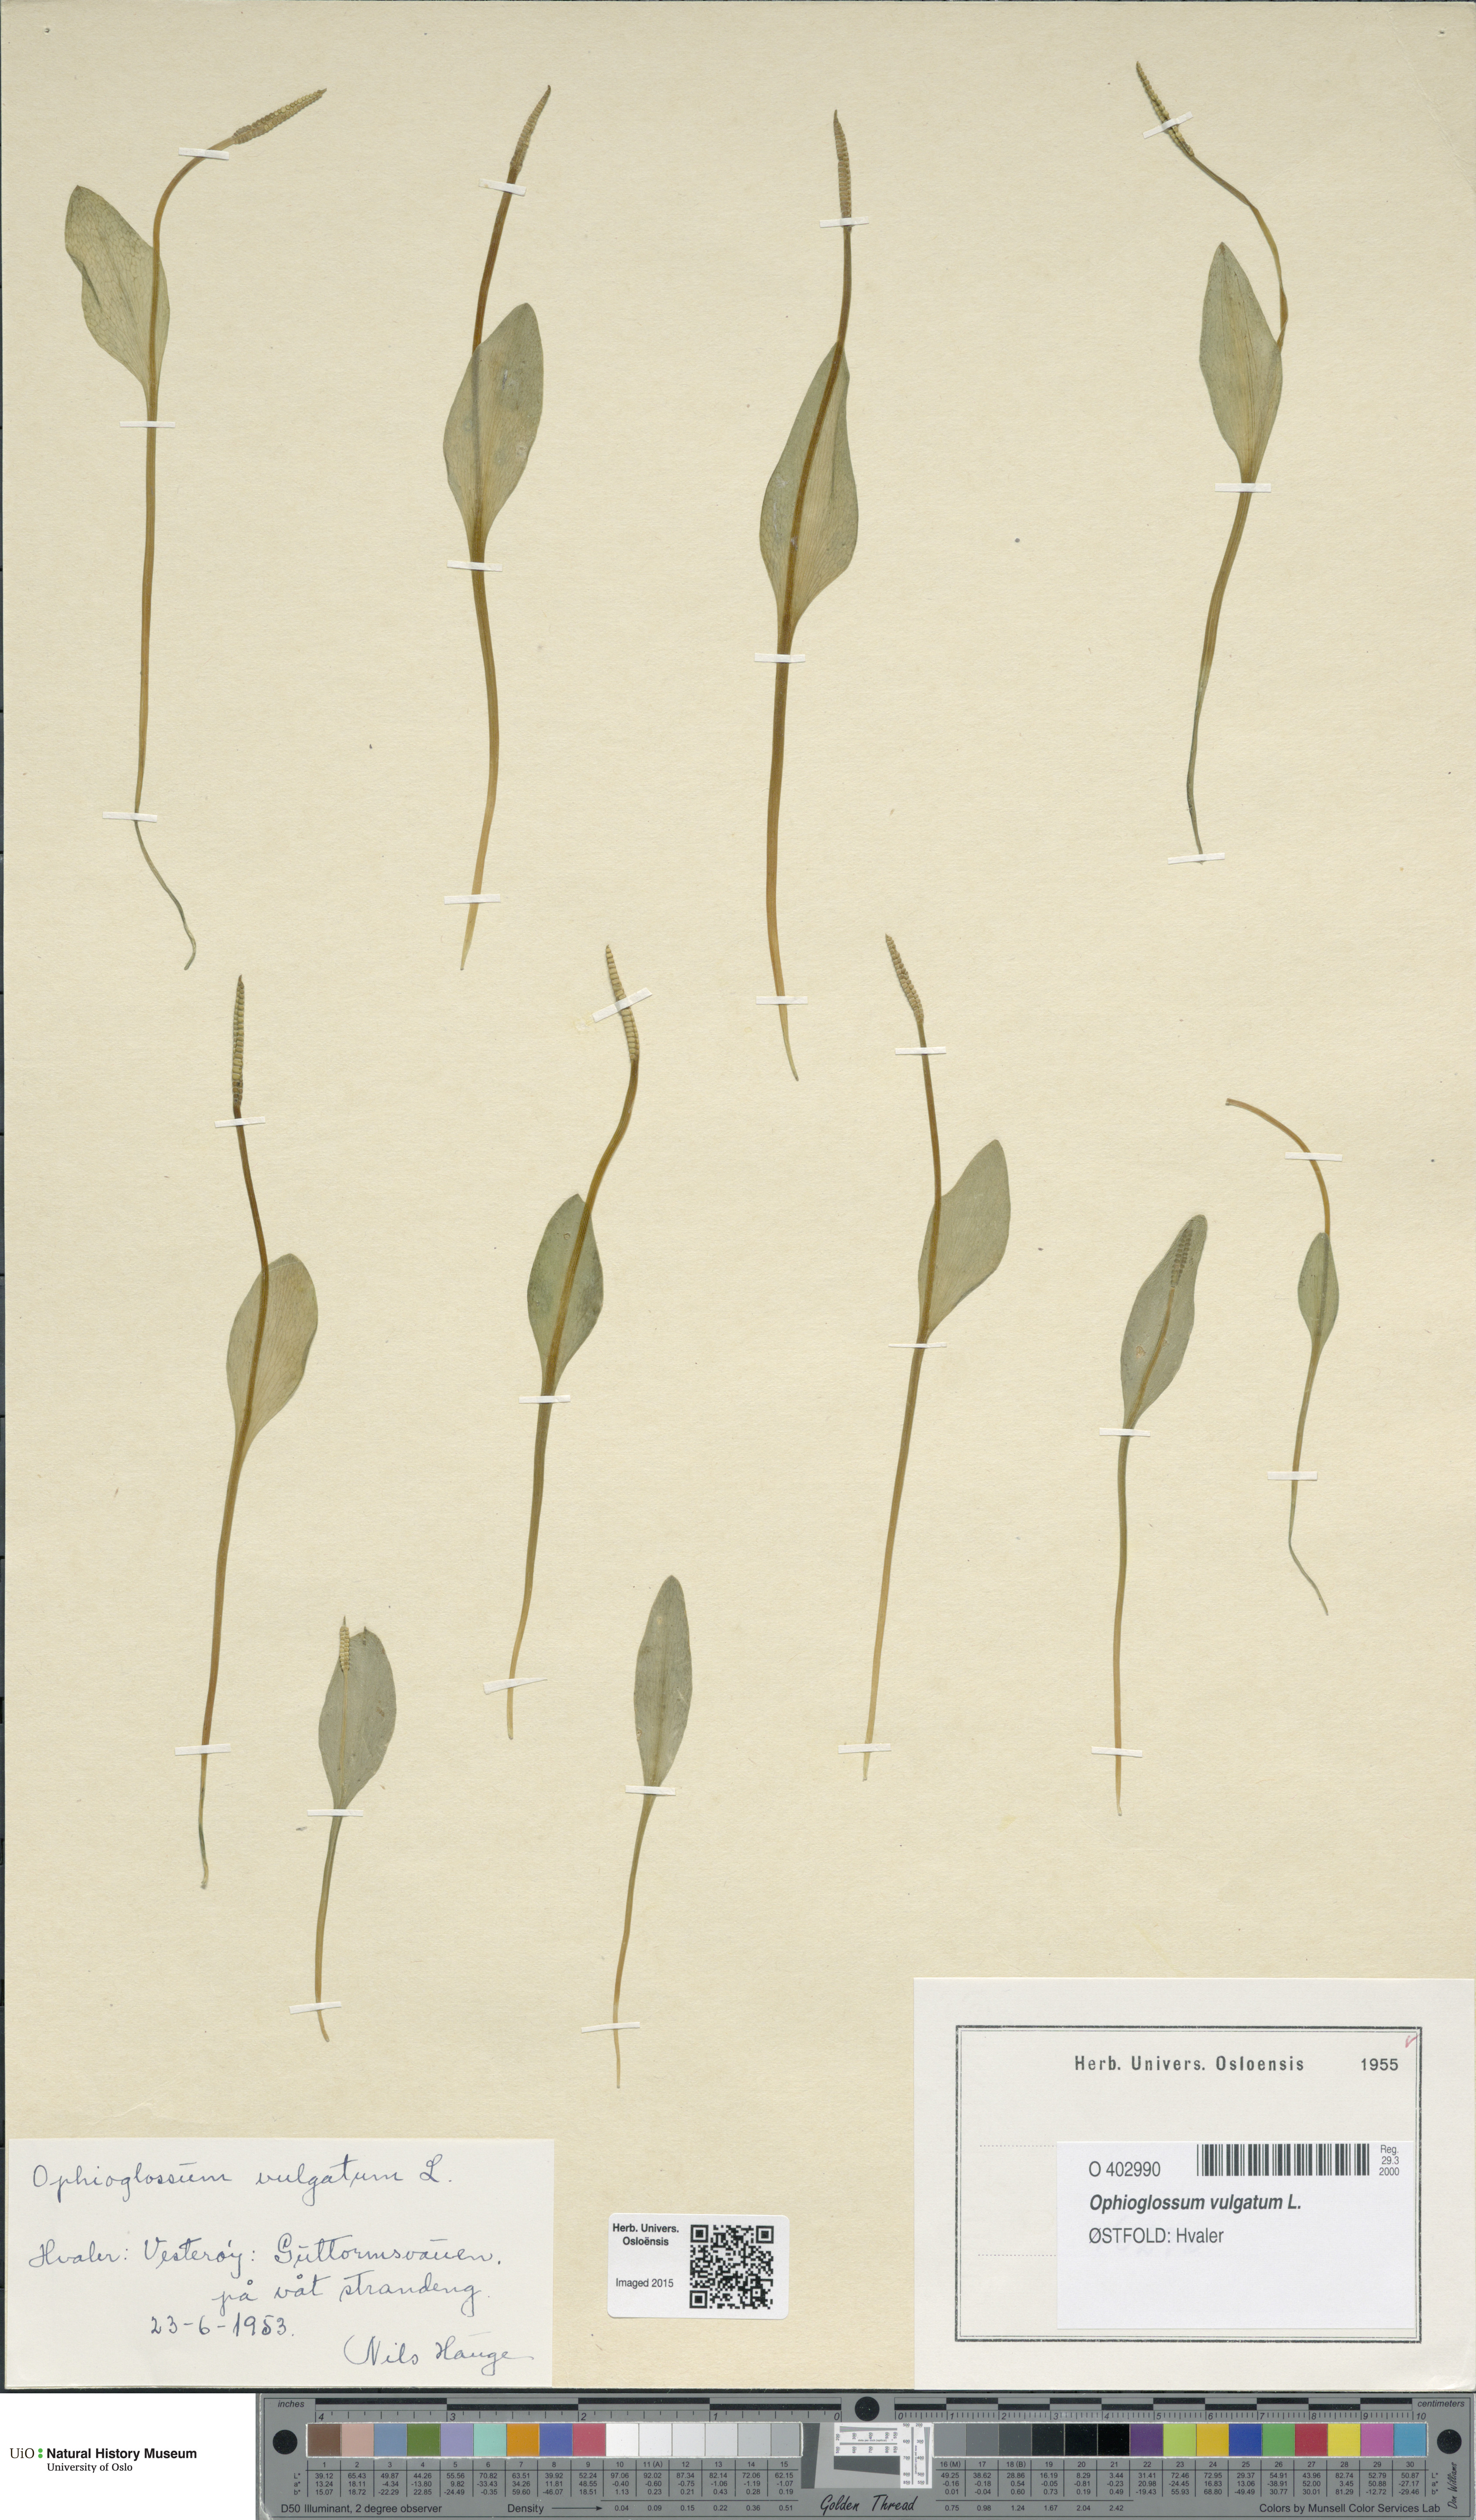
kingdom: Plantae
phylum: Tracheophyta
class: Polypodiopsida
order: Ophioglossales
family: Ophioglossaceae
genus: Ophioglossum
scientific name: Ophioglossum vulgatum
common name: Adder's-tongue
